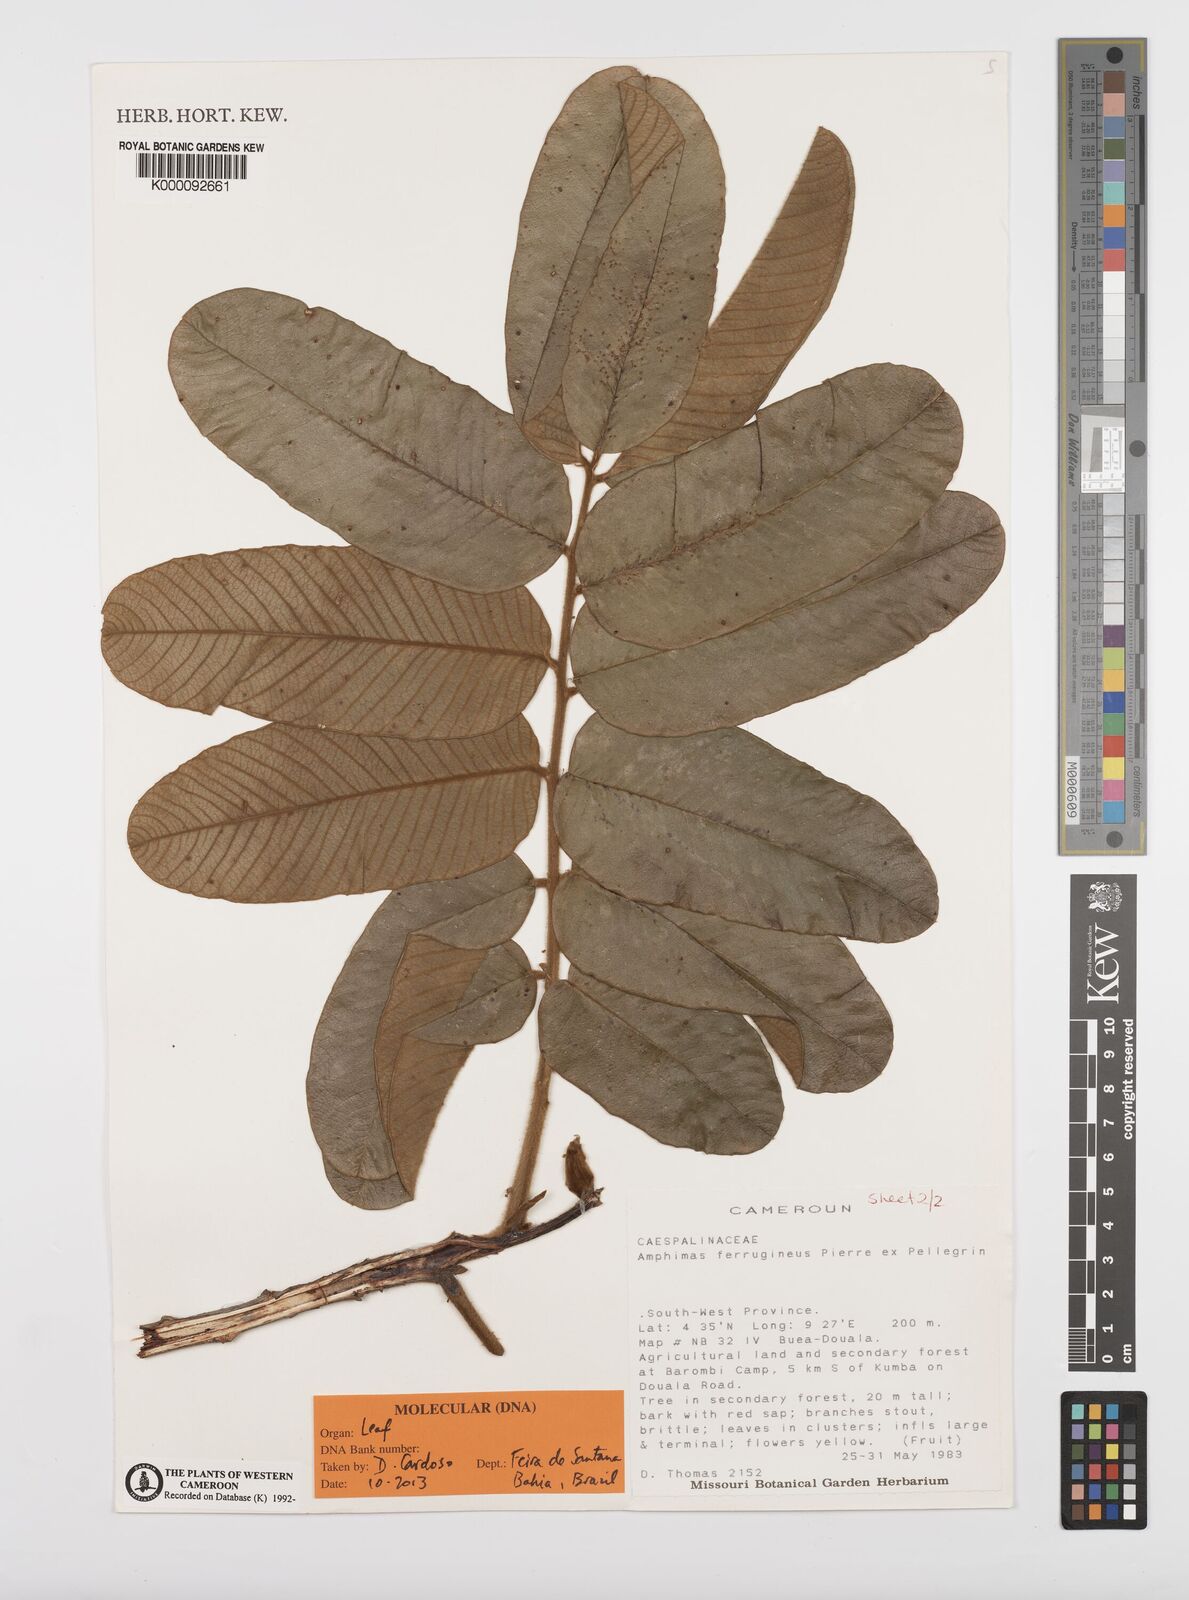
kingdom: Plantae
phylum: Tracheophyta
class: Magnoliopsida
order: Fabales
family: Fabaceae
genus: Amphimas
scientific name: Amphimas ferrugineus
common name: Bokanga
